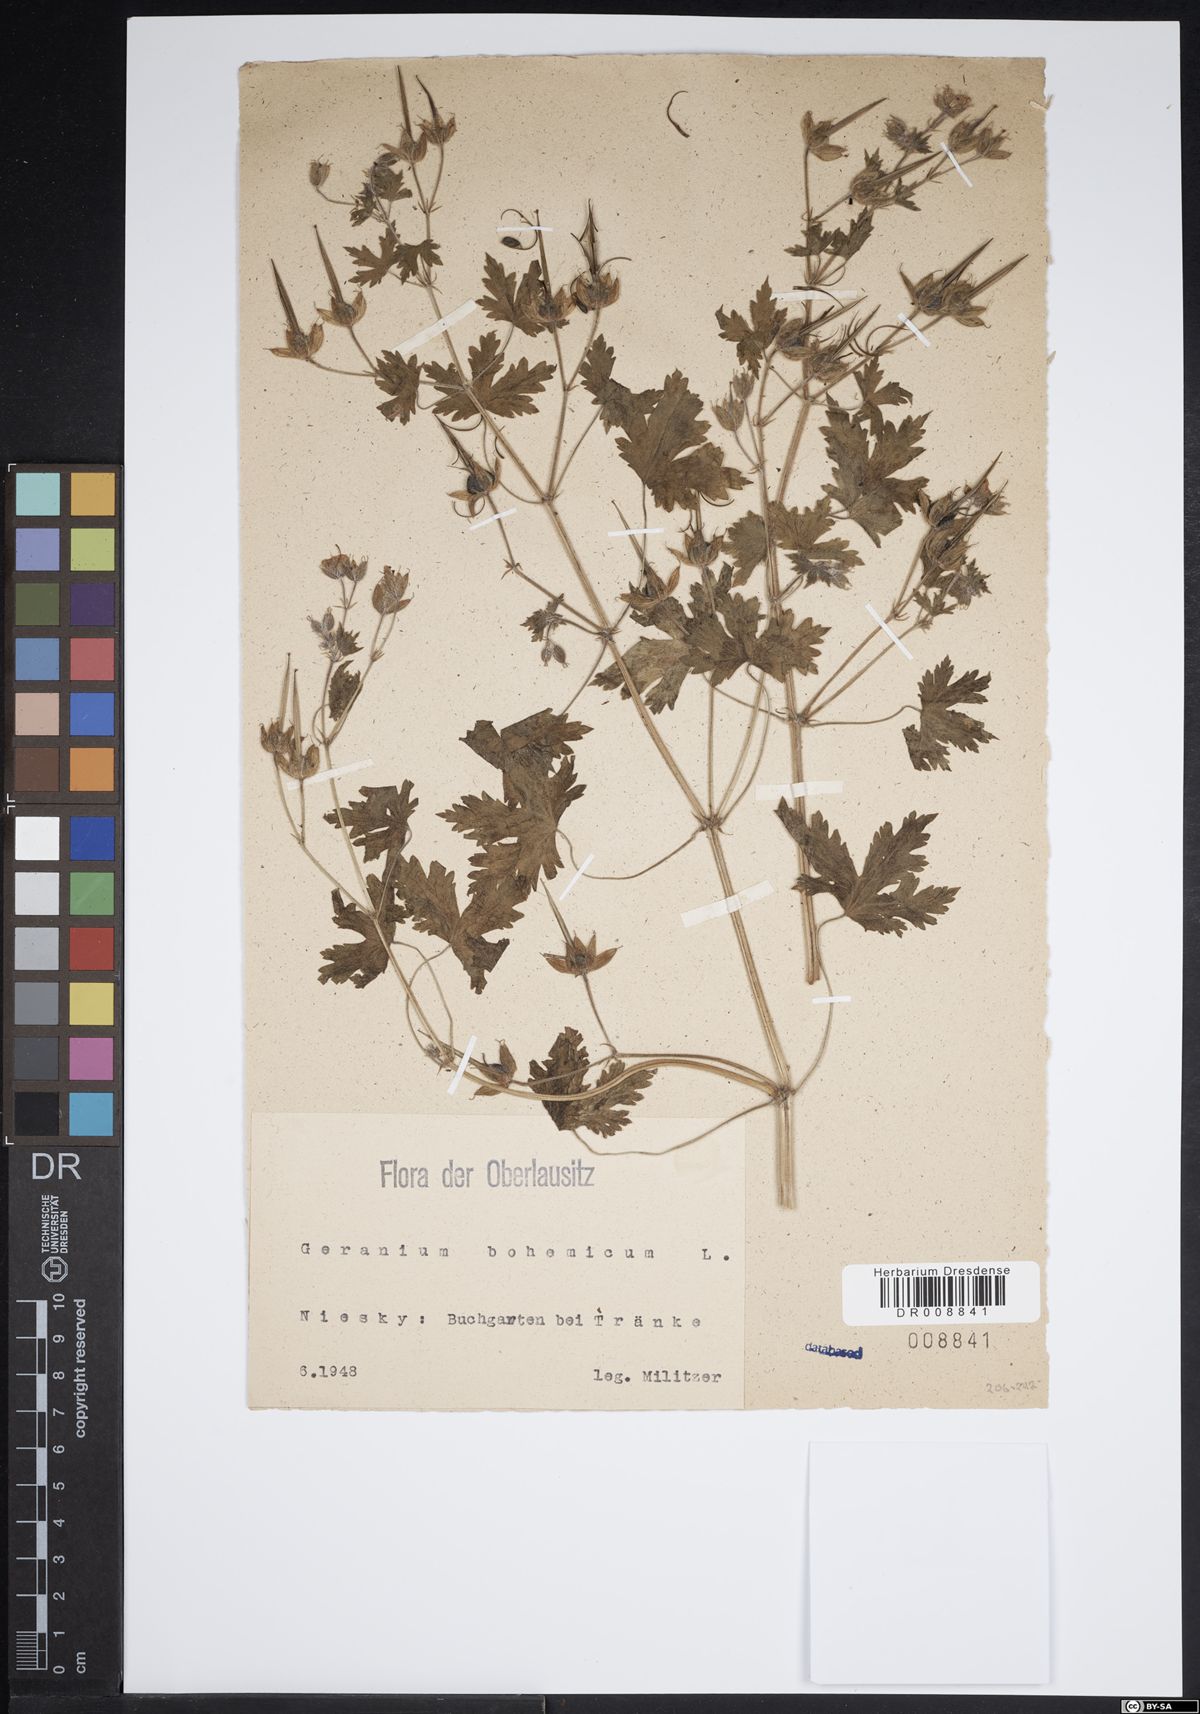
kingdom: Plantae
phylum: Tracheophyta
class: Magnoliopsida
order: Geraniales
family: Geraniaceae
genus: Geranium
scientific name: Geranium bohemicum
